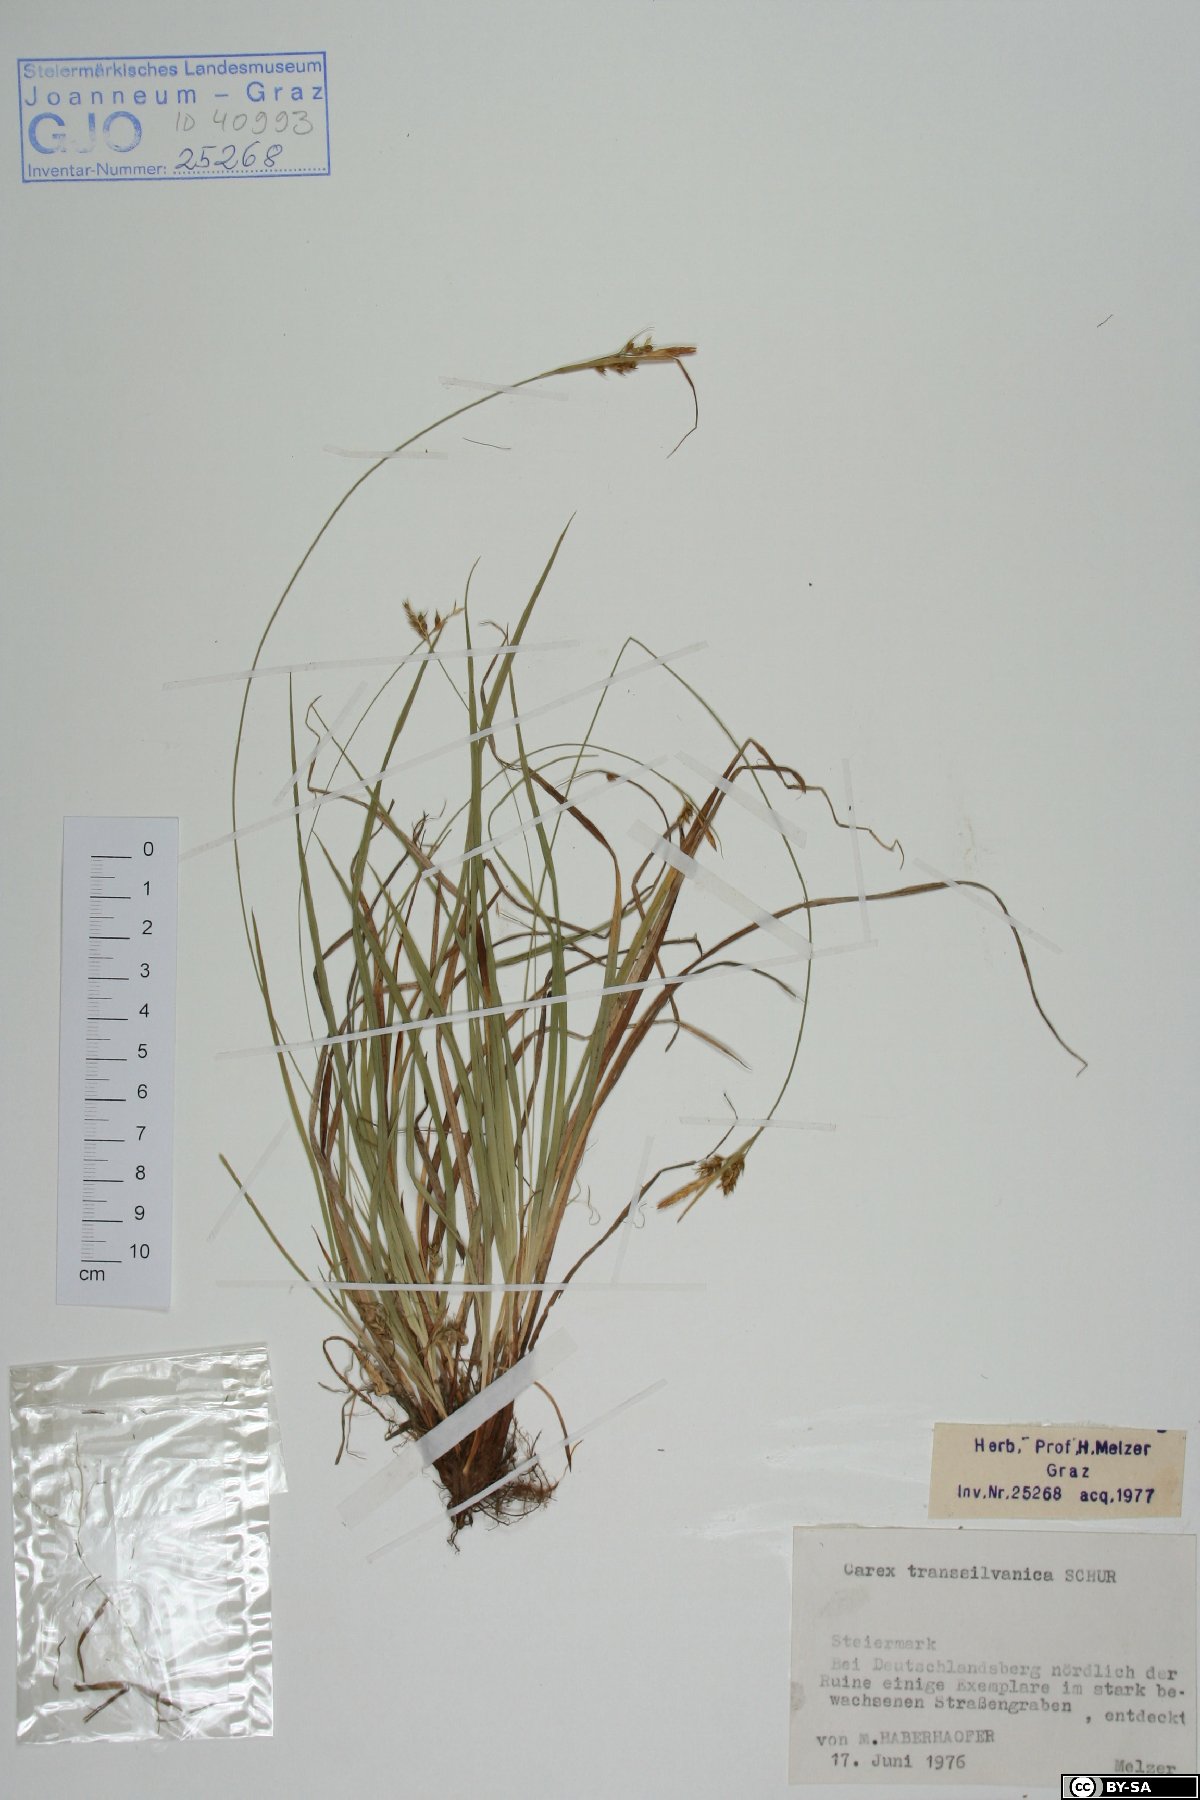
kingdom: Plantae
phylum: Tracheophyta
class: Liliopsida
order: Poales
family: Cyperaceae
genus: Carex
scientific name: Carex depressa
